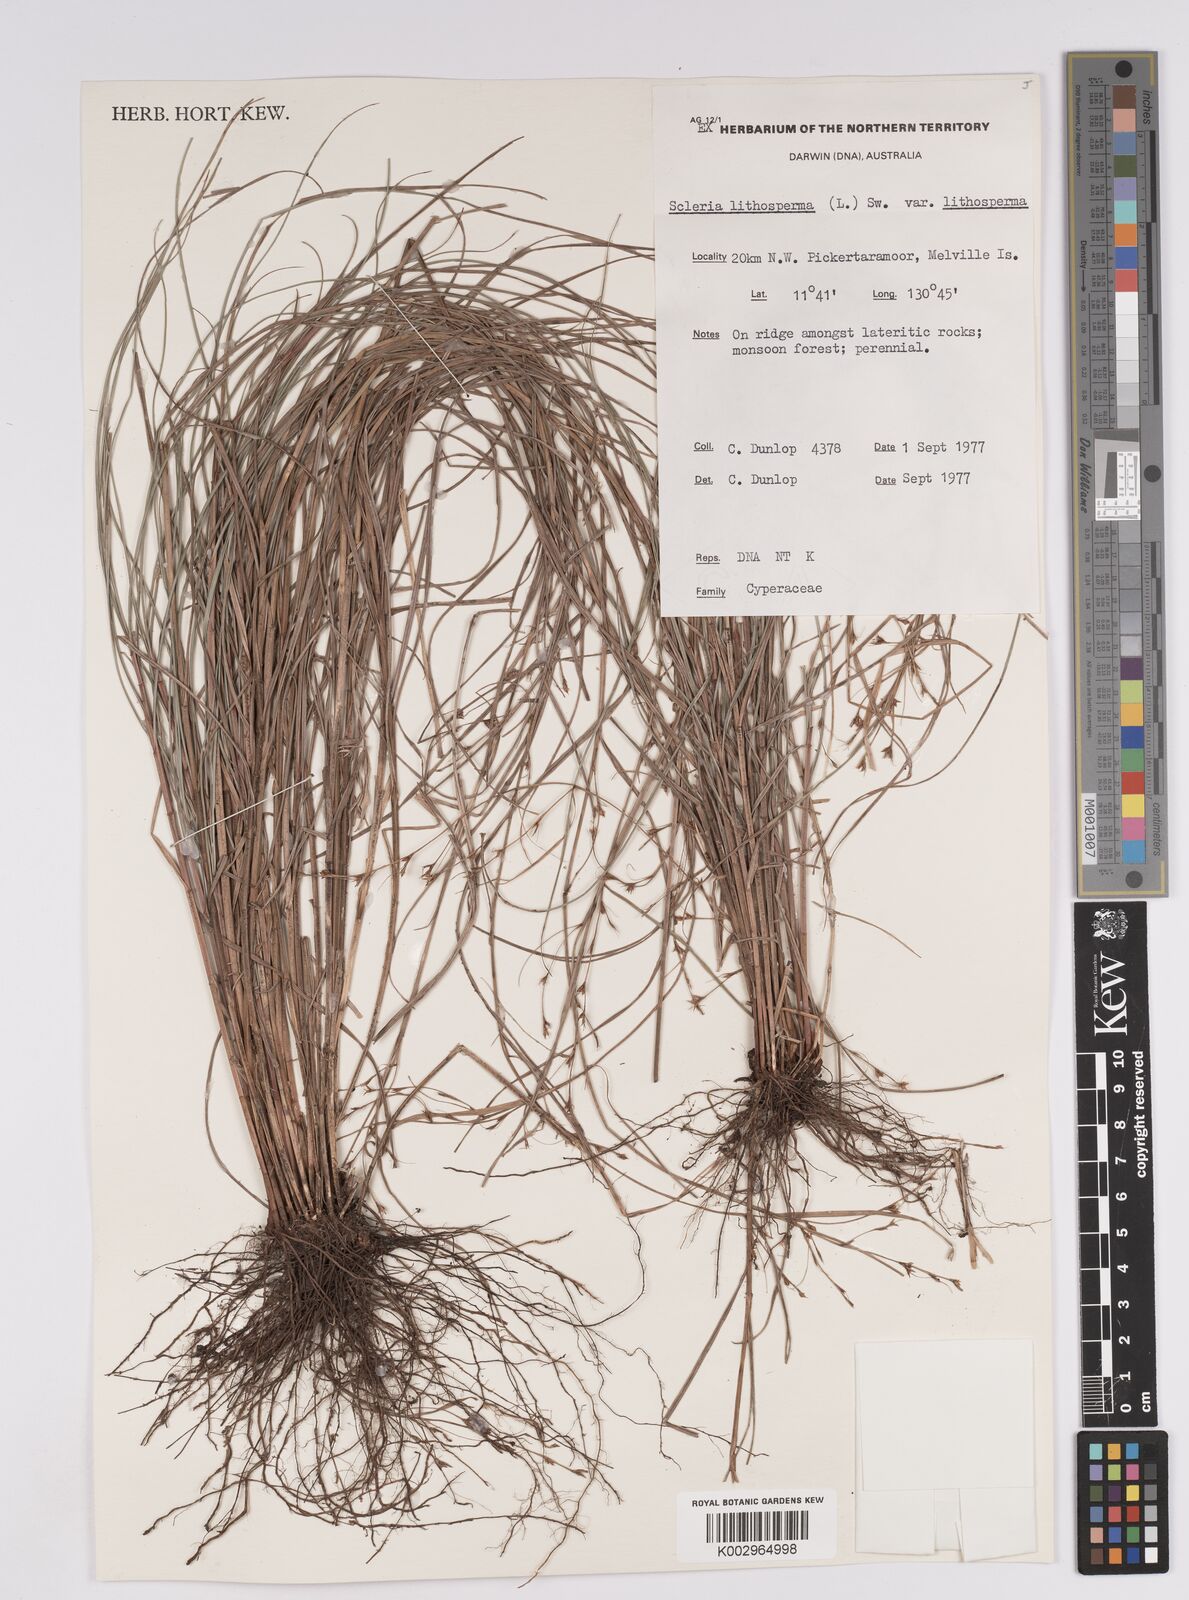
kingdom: Plantae
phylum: Tracheophyta
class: Liliopsida
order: Poales
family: Cyperaceae
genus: Scleria
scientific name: Scleria lithosperma
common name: Florida keys nut-rush
